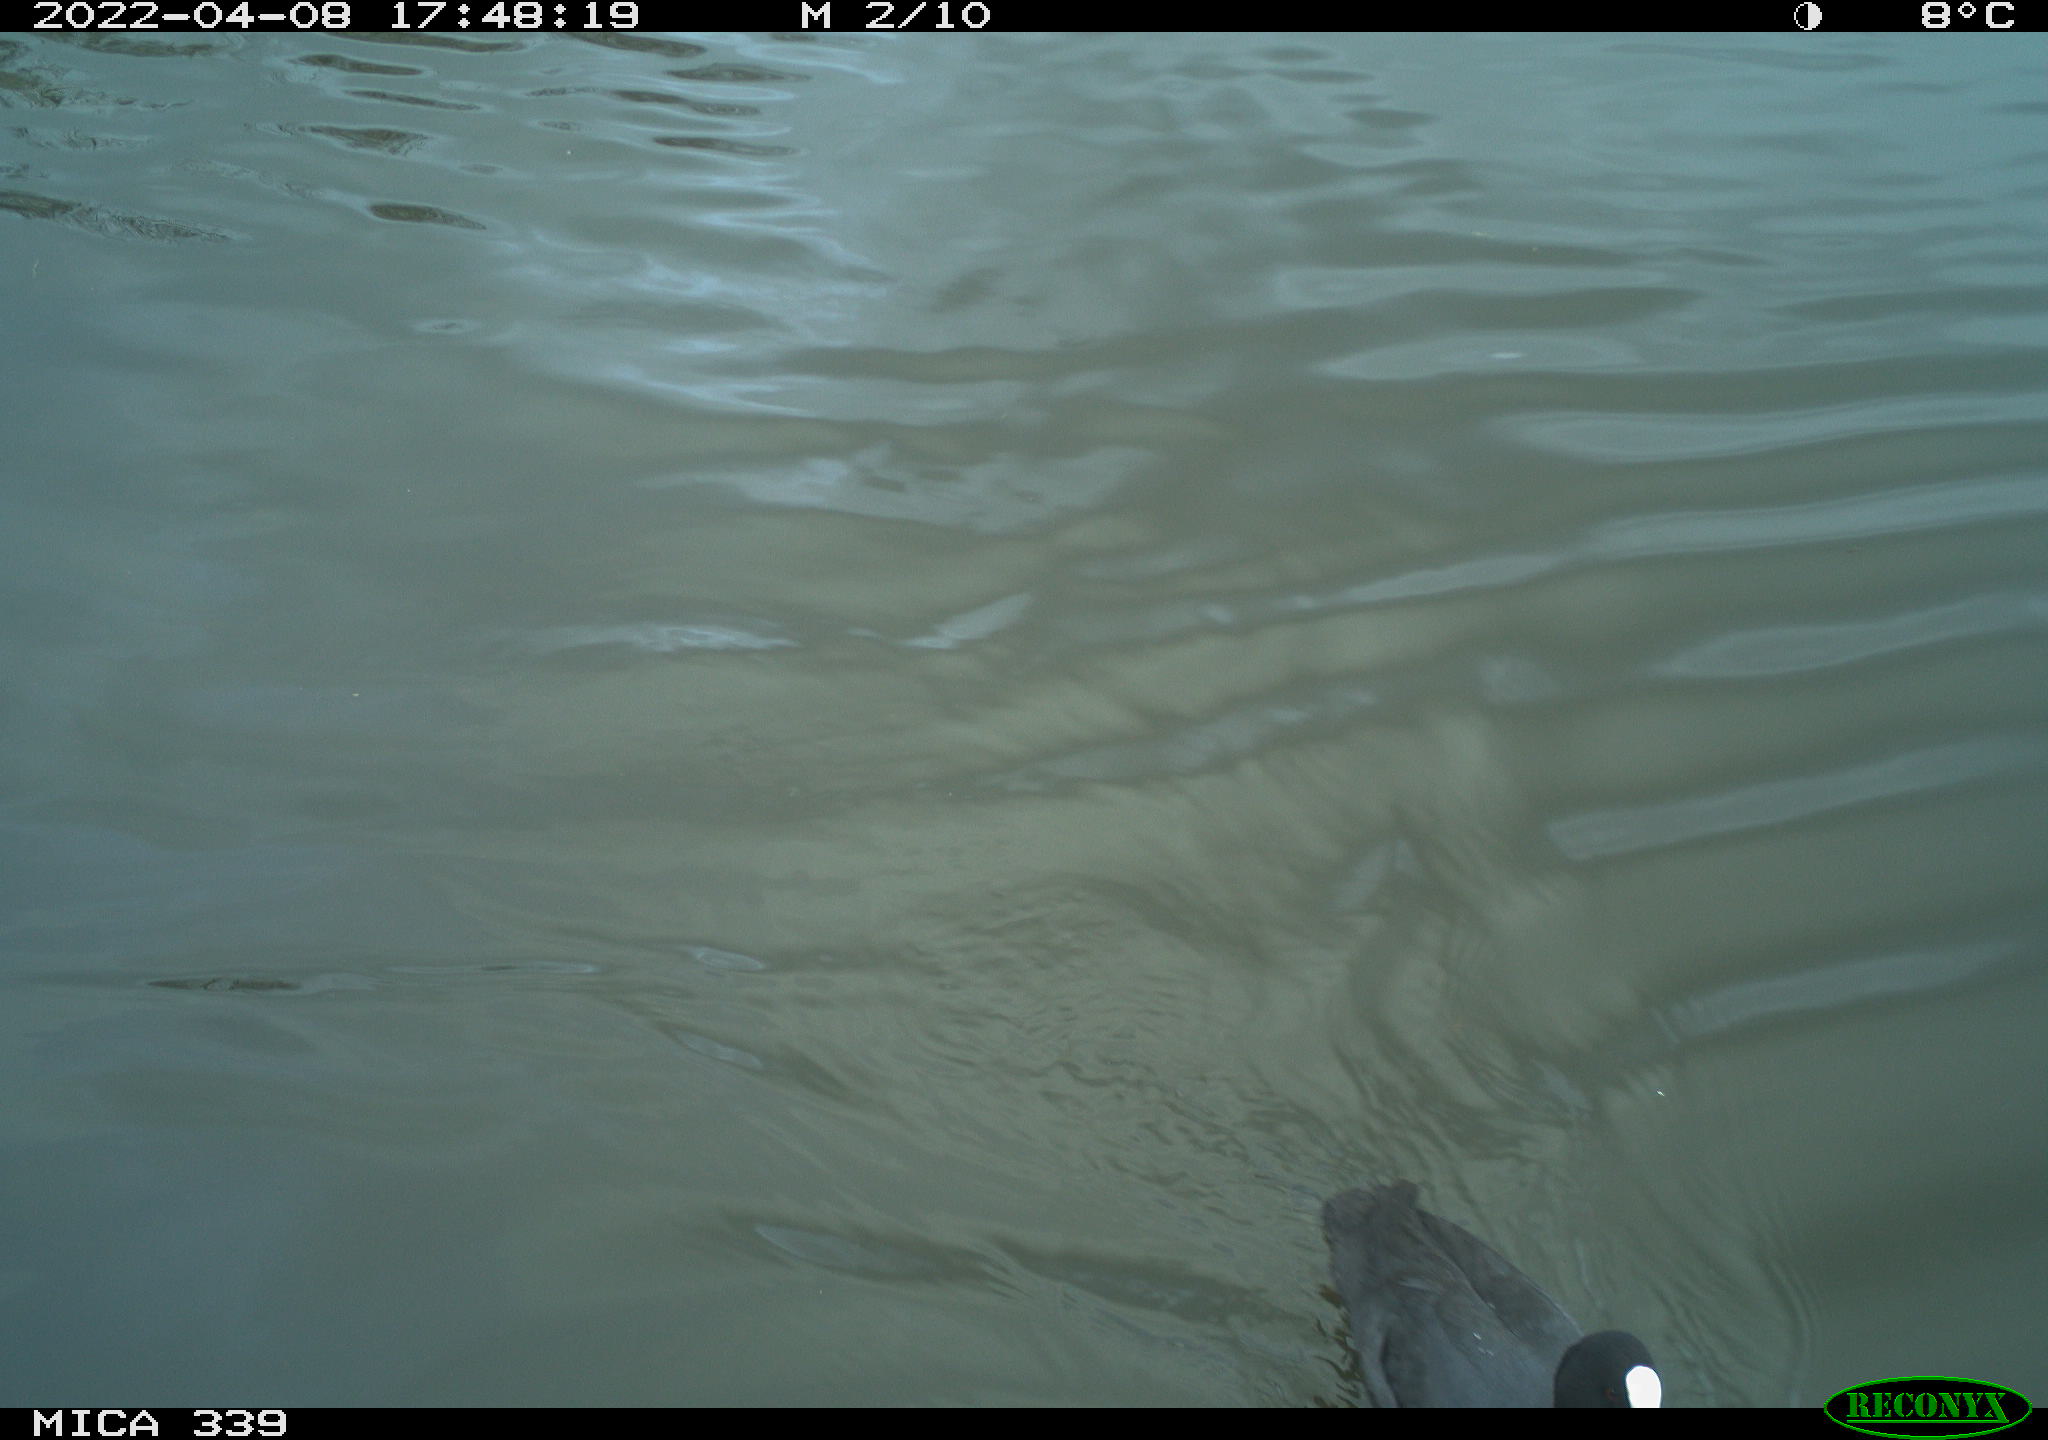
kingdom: Animalia
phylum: Chordata
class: Aves
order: Gruiformes
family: Rallidae
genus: Fulica
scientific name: Fulica atra
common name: Eurasian coot
